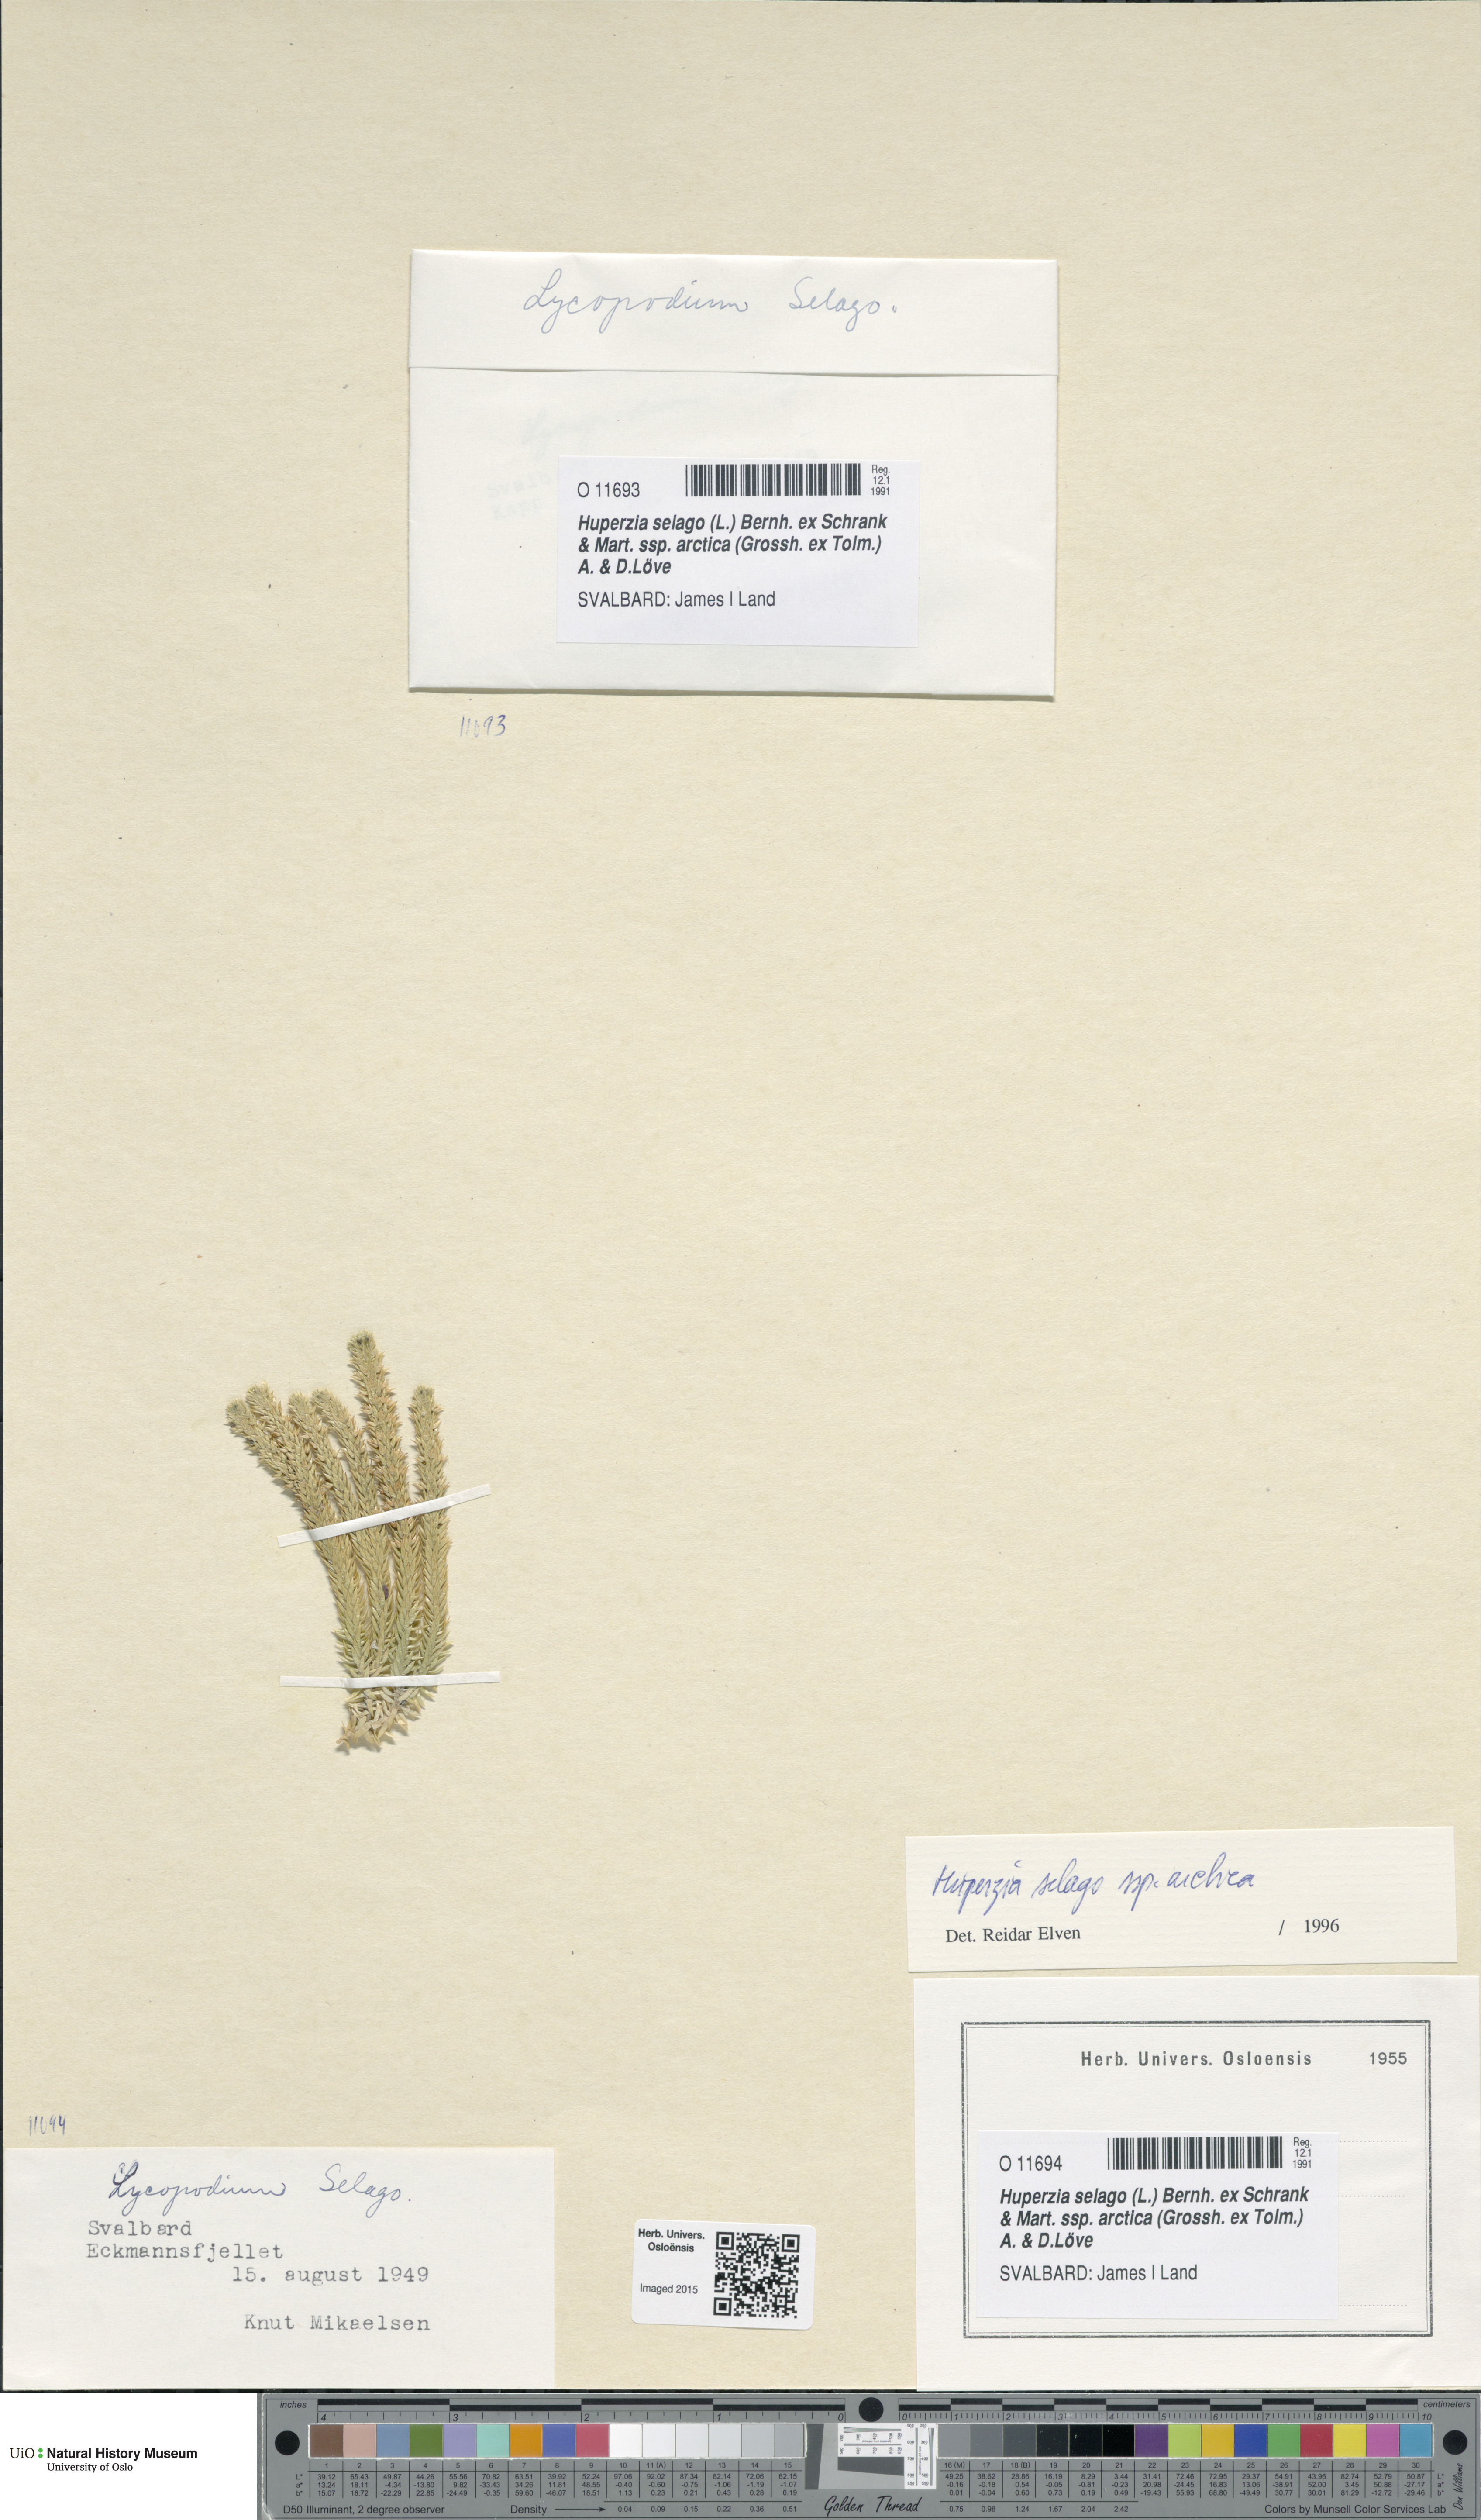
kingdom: Plantae
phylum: Tracheophyta
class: Lycopodiopsida
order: Lycopodiales
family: Lycopodiaceae
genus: Huperzia
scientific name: Huperzia selago
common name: Northern firmoss
